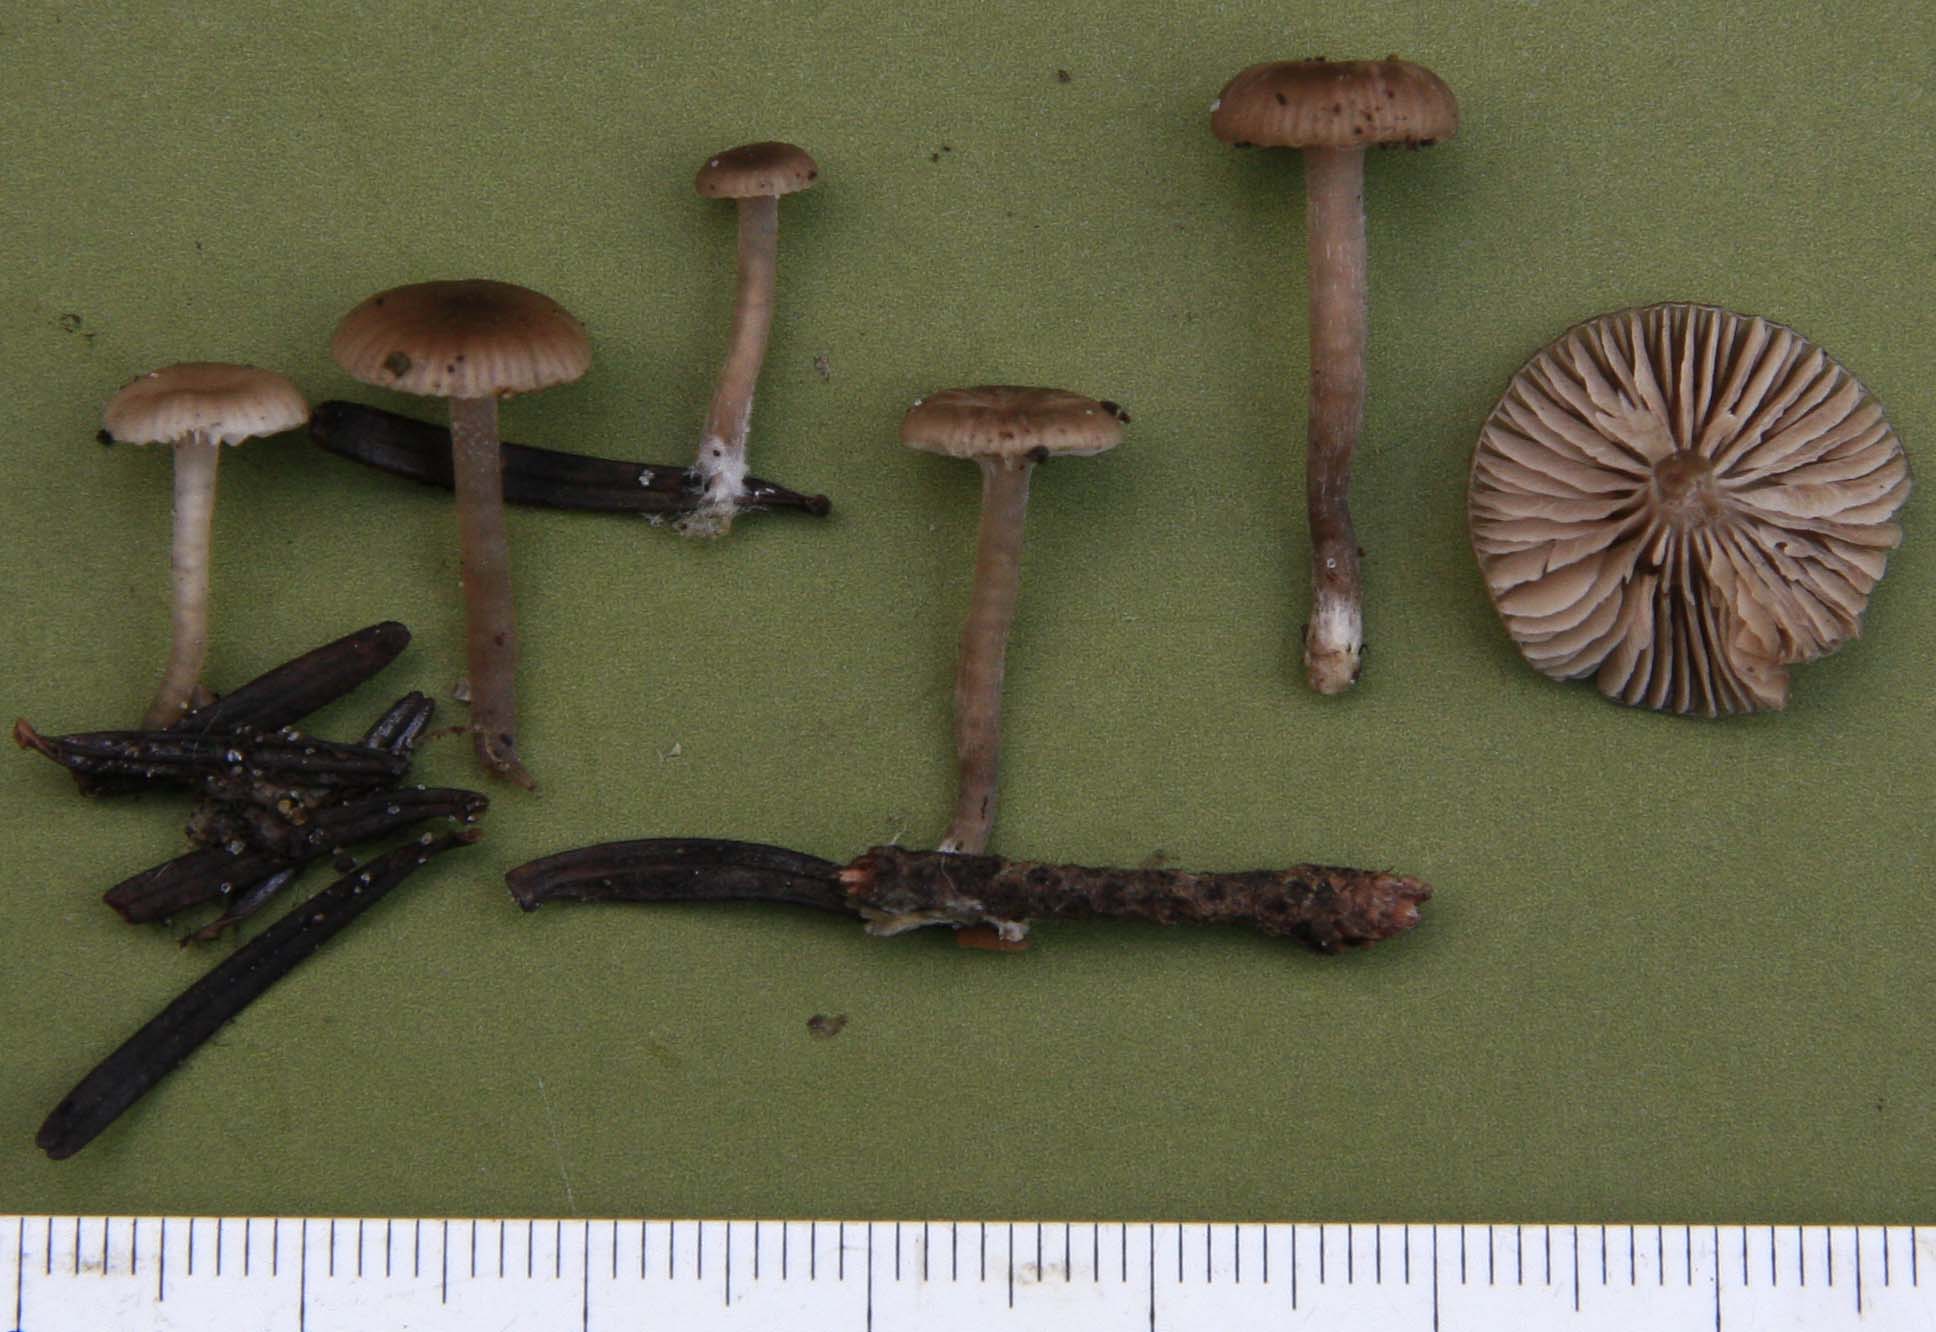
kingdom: Fungi
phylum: Basidiomycota
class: Agaricomycetes
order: Agaricales
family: Tricholomataceae
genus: Gamundia
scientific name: Gamundia striatula
